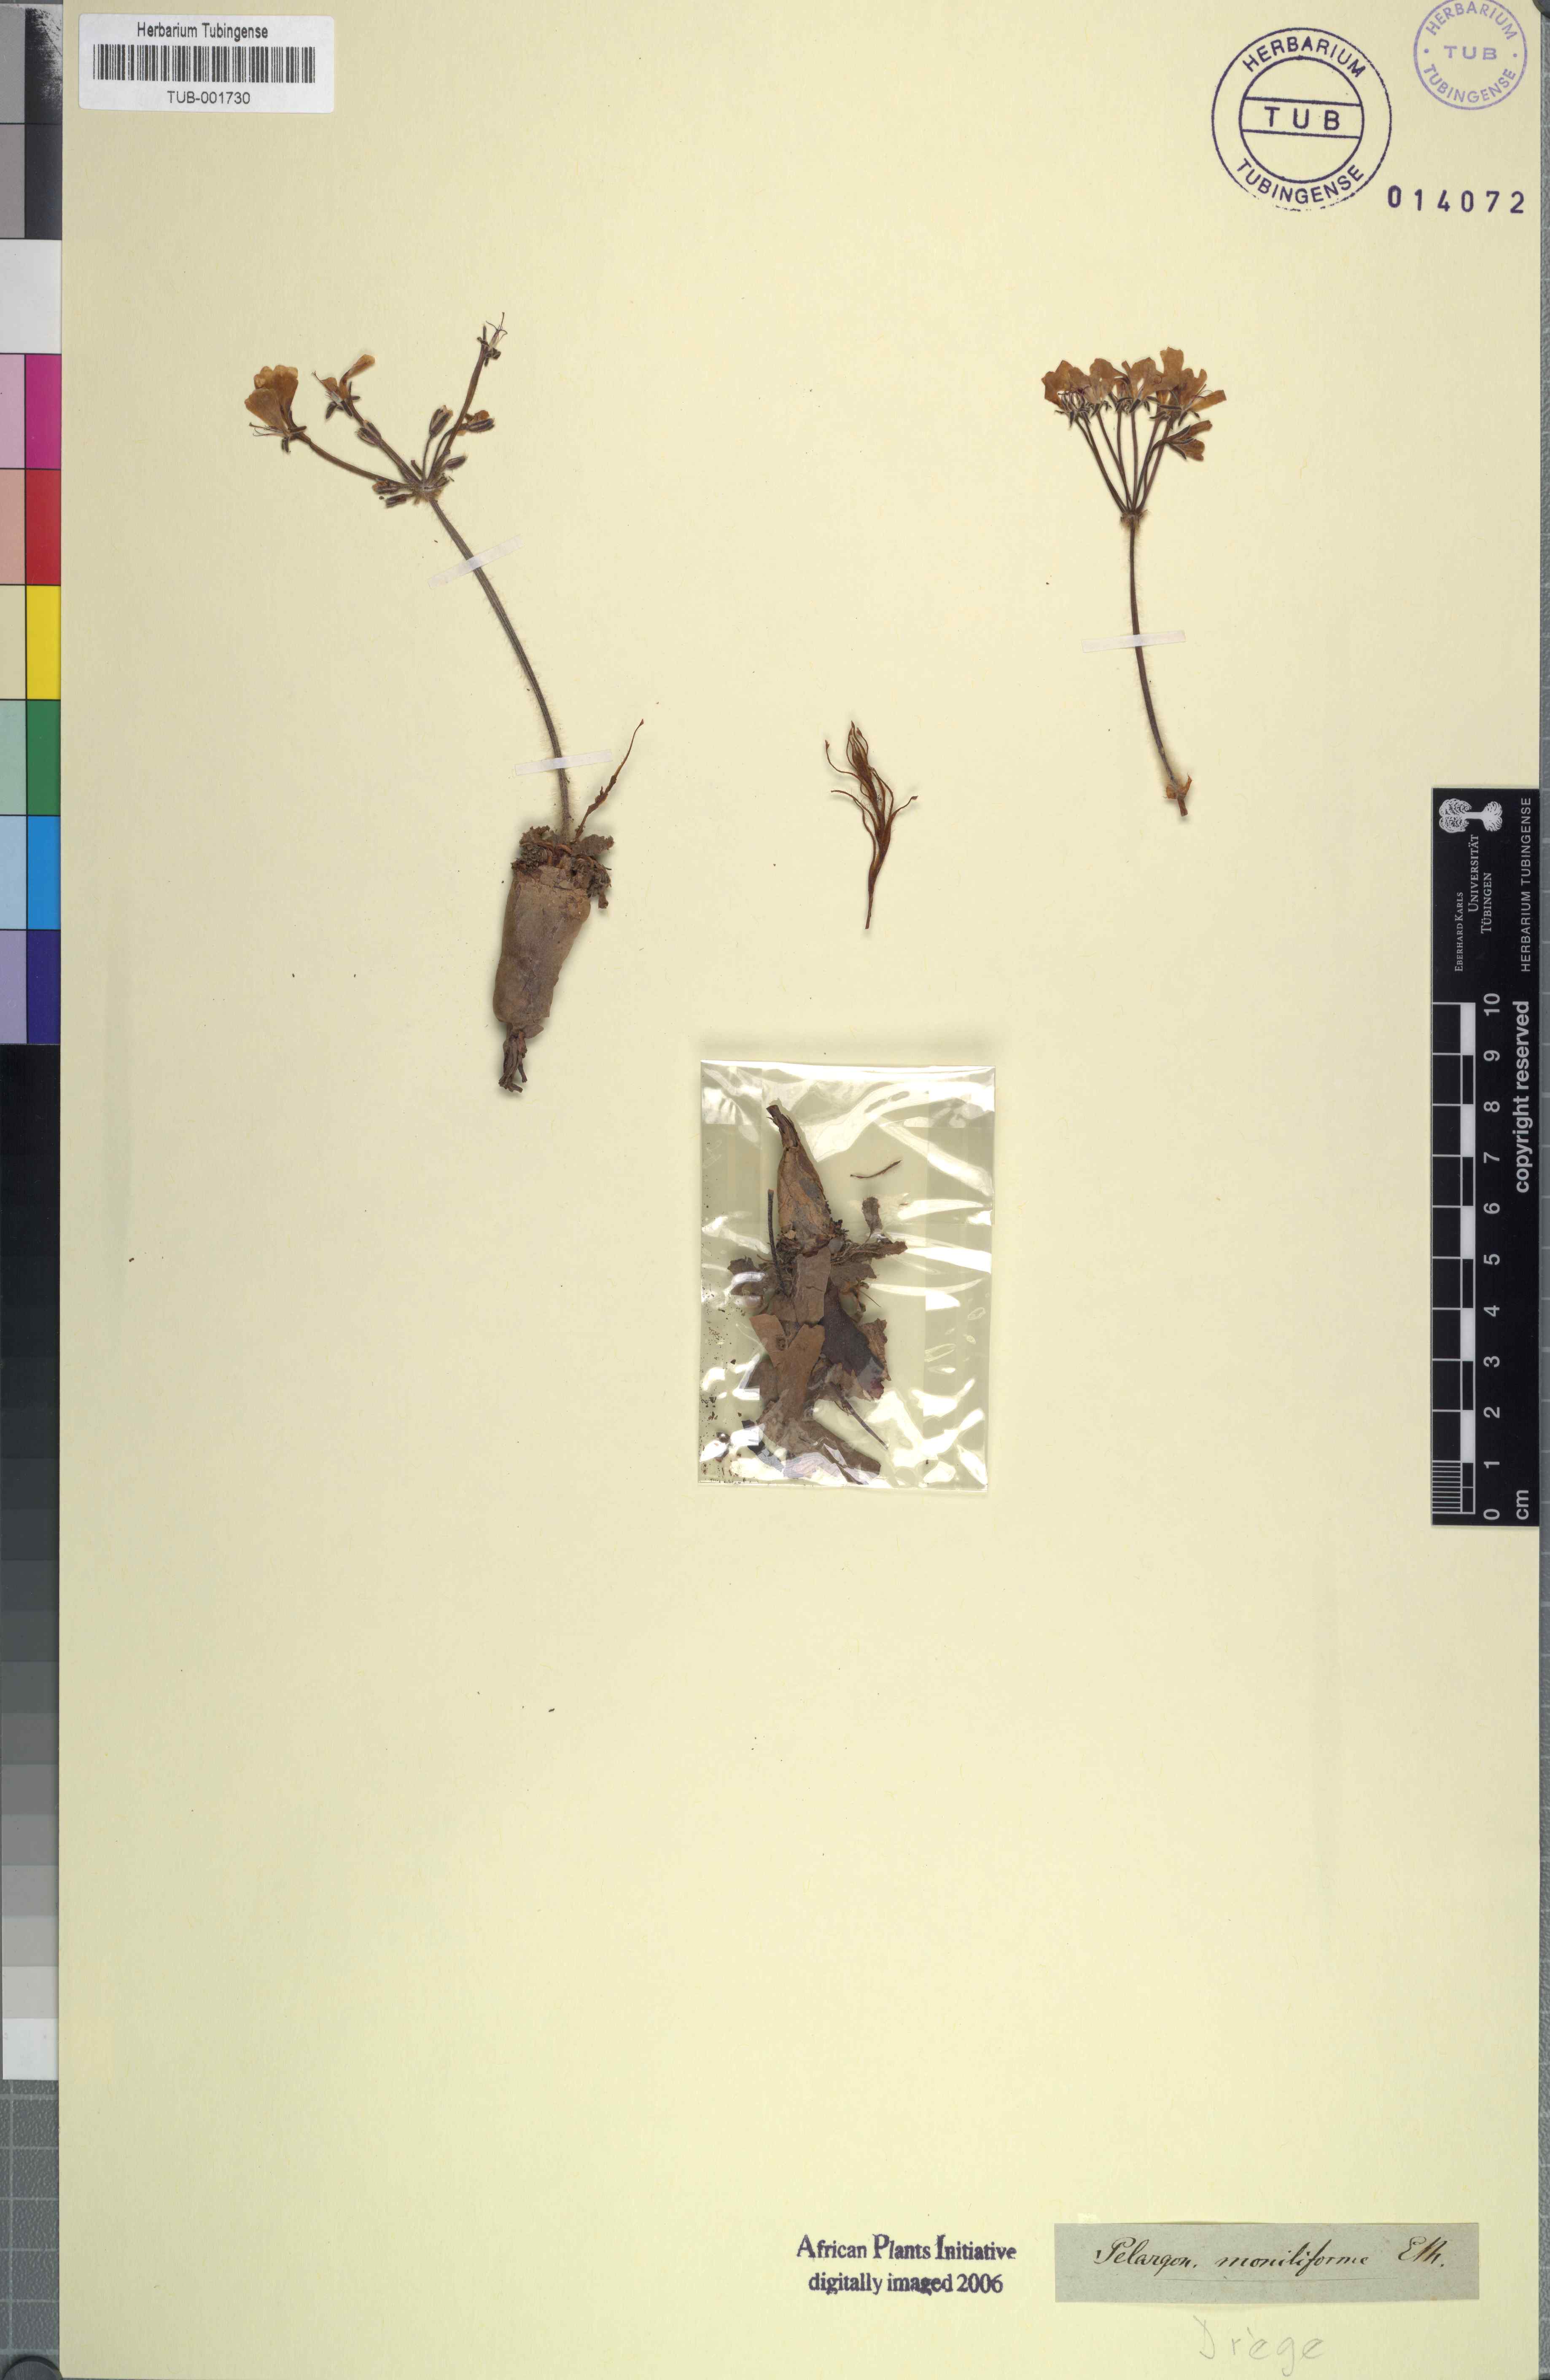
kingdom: Plantae
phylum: Tracheophyta
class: Magnoliopsida
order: Geraniales
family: Geraniaceae
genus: Pelargonium
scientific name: Pelargonium moniliforme
